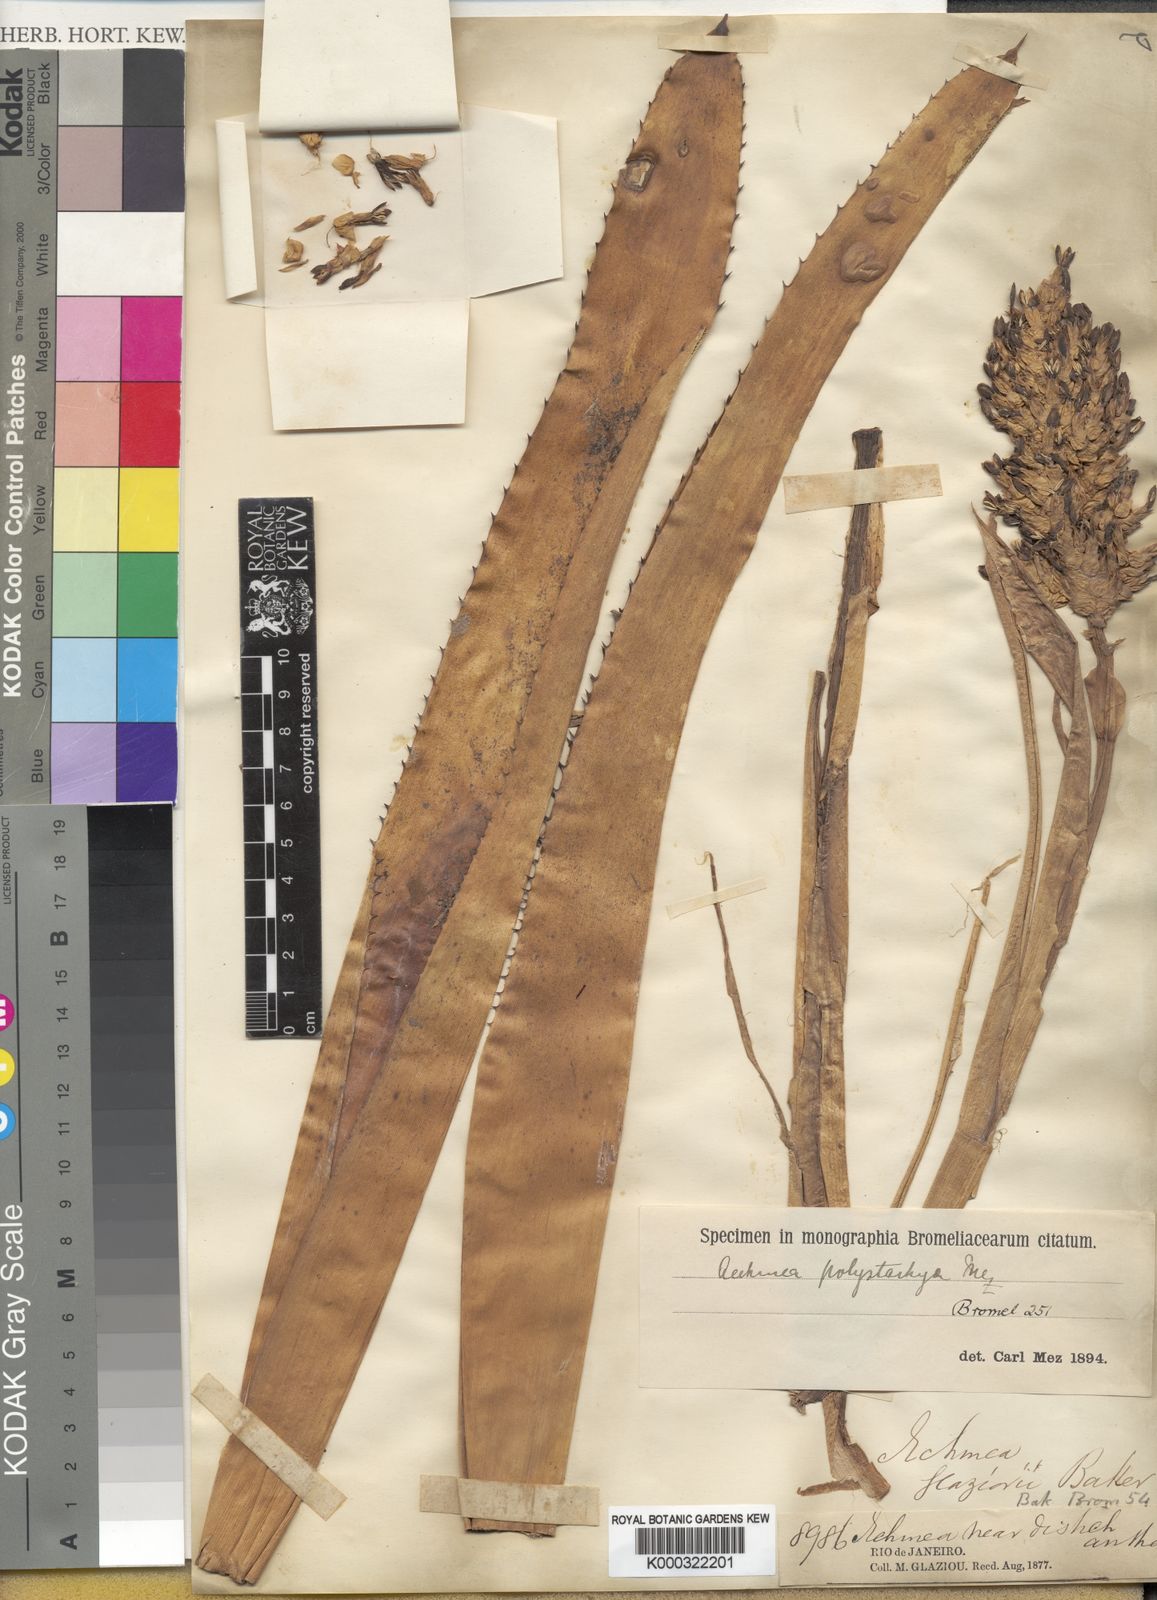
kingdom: Plantae
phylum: Tracheophyta
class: Liliopsida
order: Poales
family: Bromeliaceae
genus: Aechmea
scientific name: Aechmea distichantha
